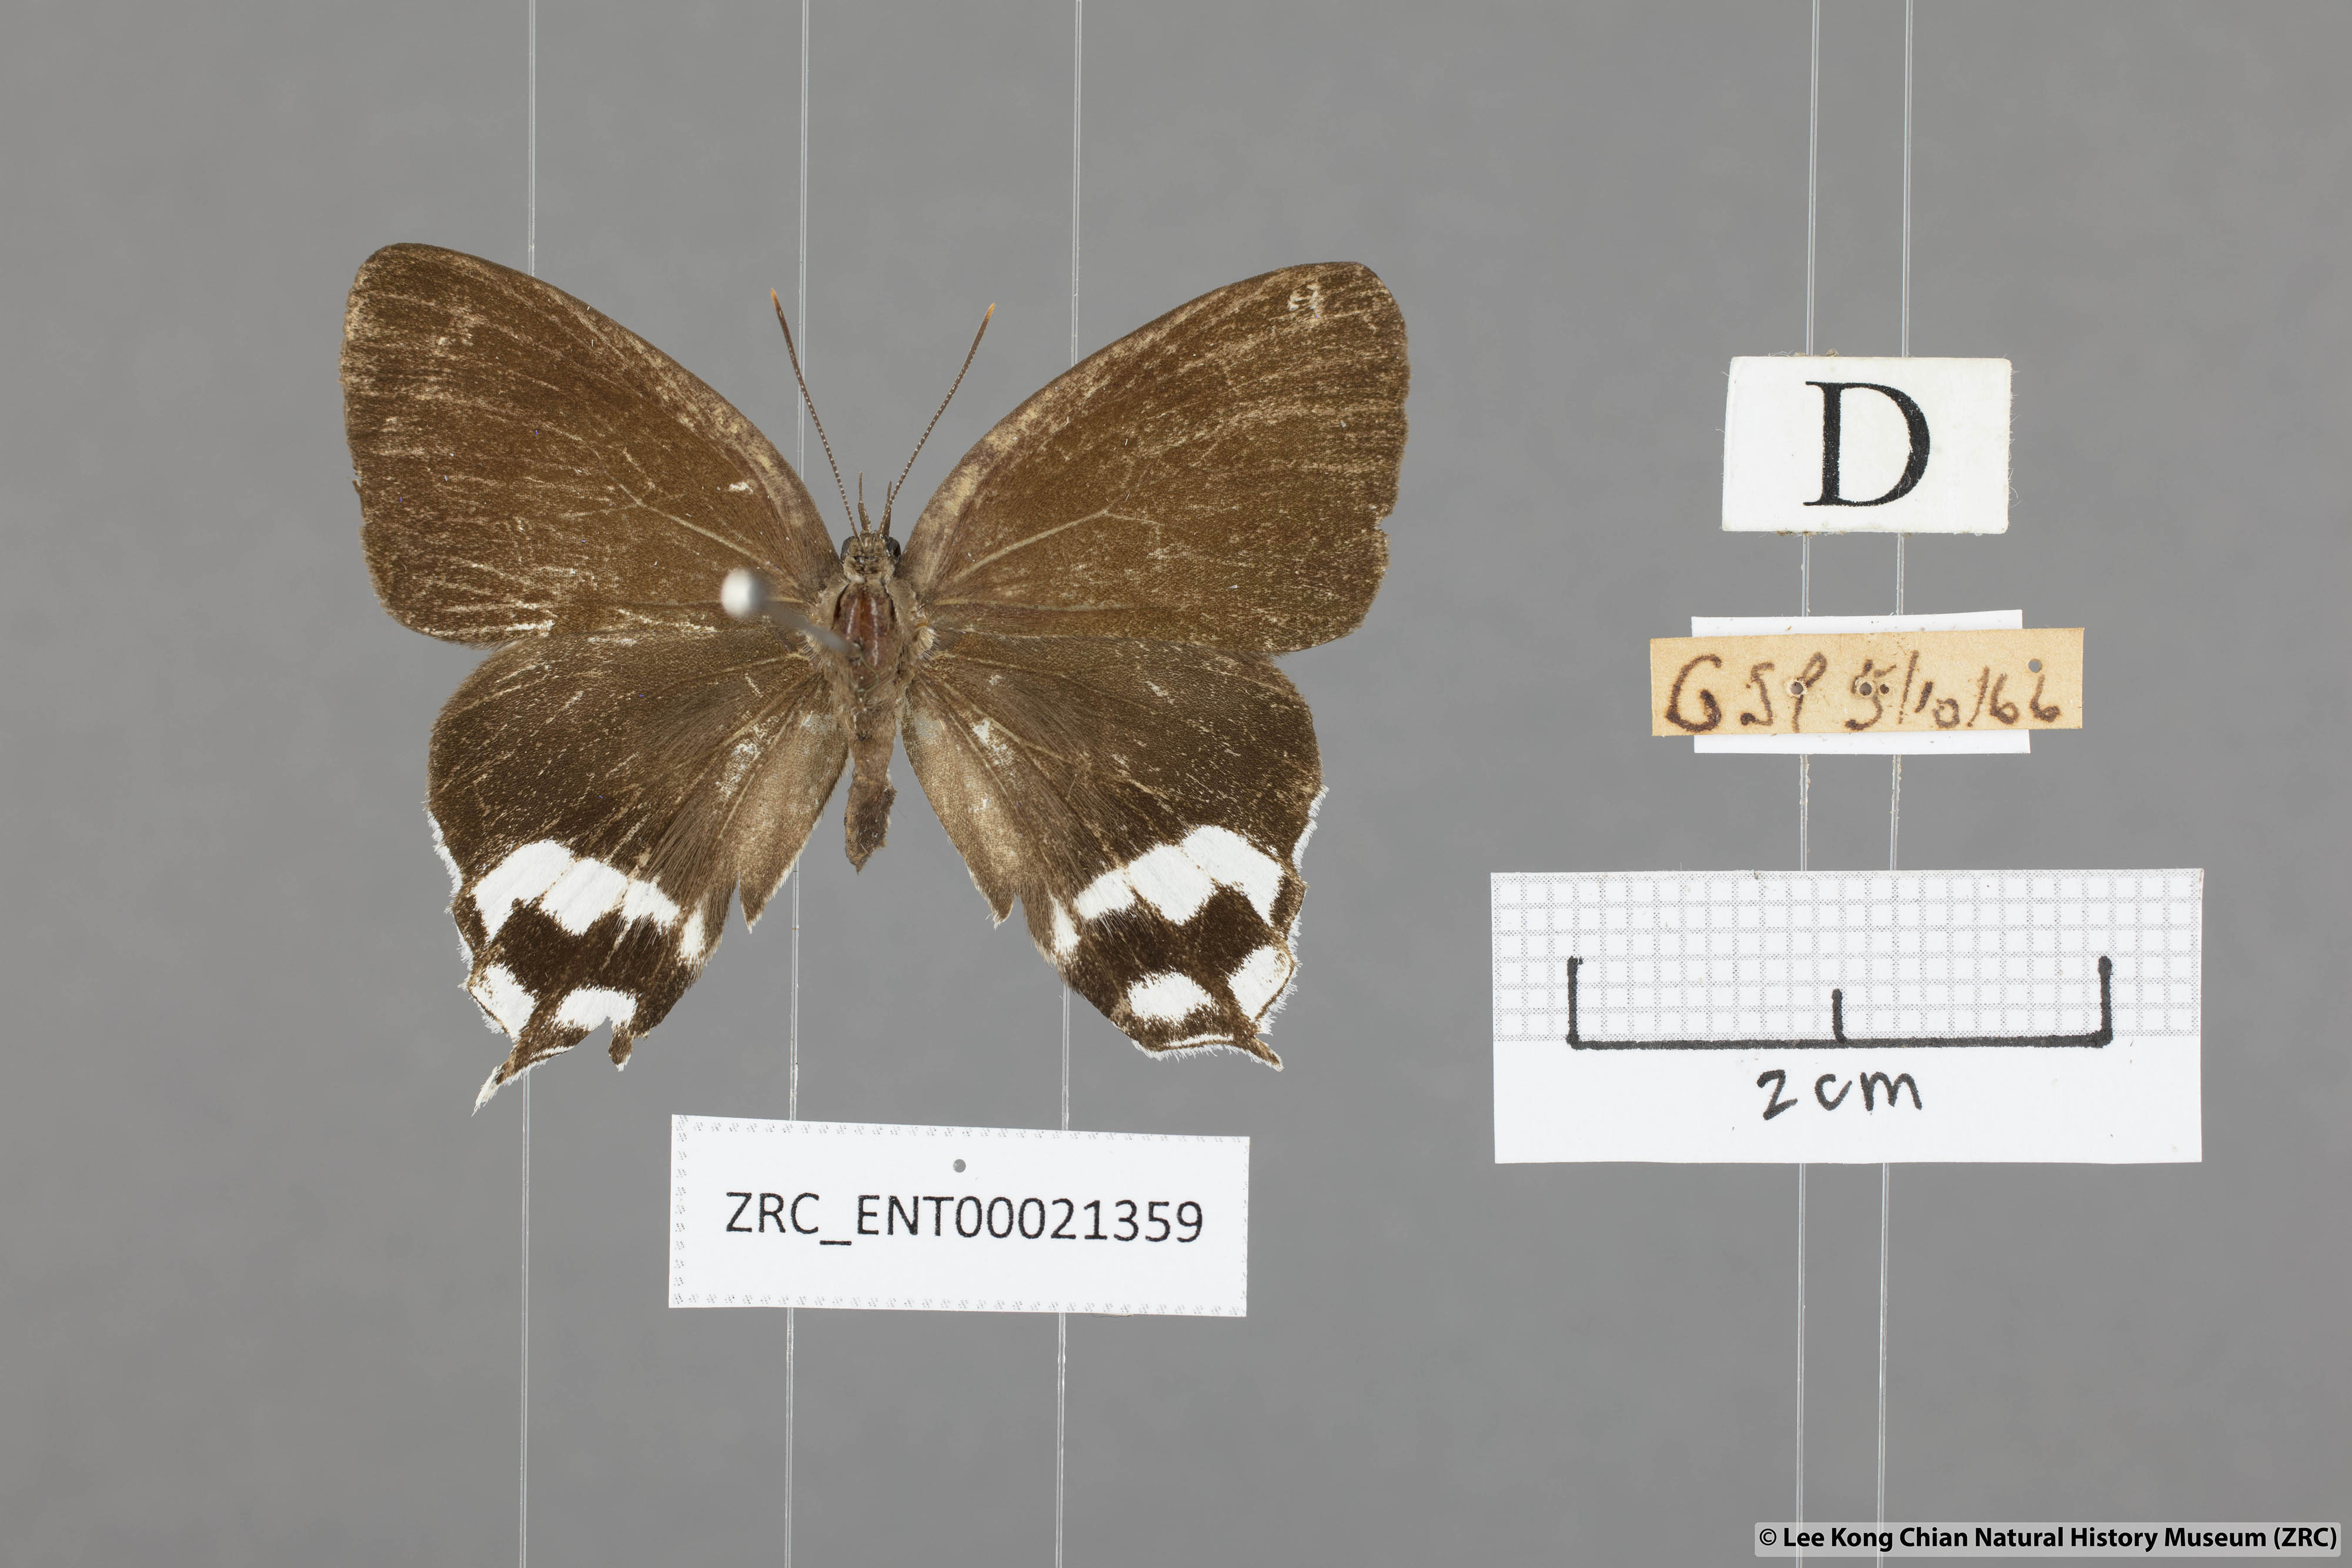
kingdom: Animalia
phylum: Arthropoda
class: Insecta
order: Lepidoptera
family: Lycaenidae
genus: Drina
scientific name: Drina
